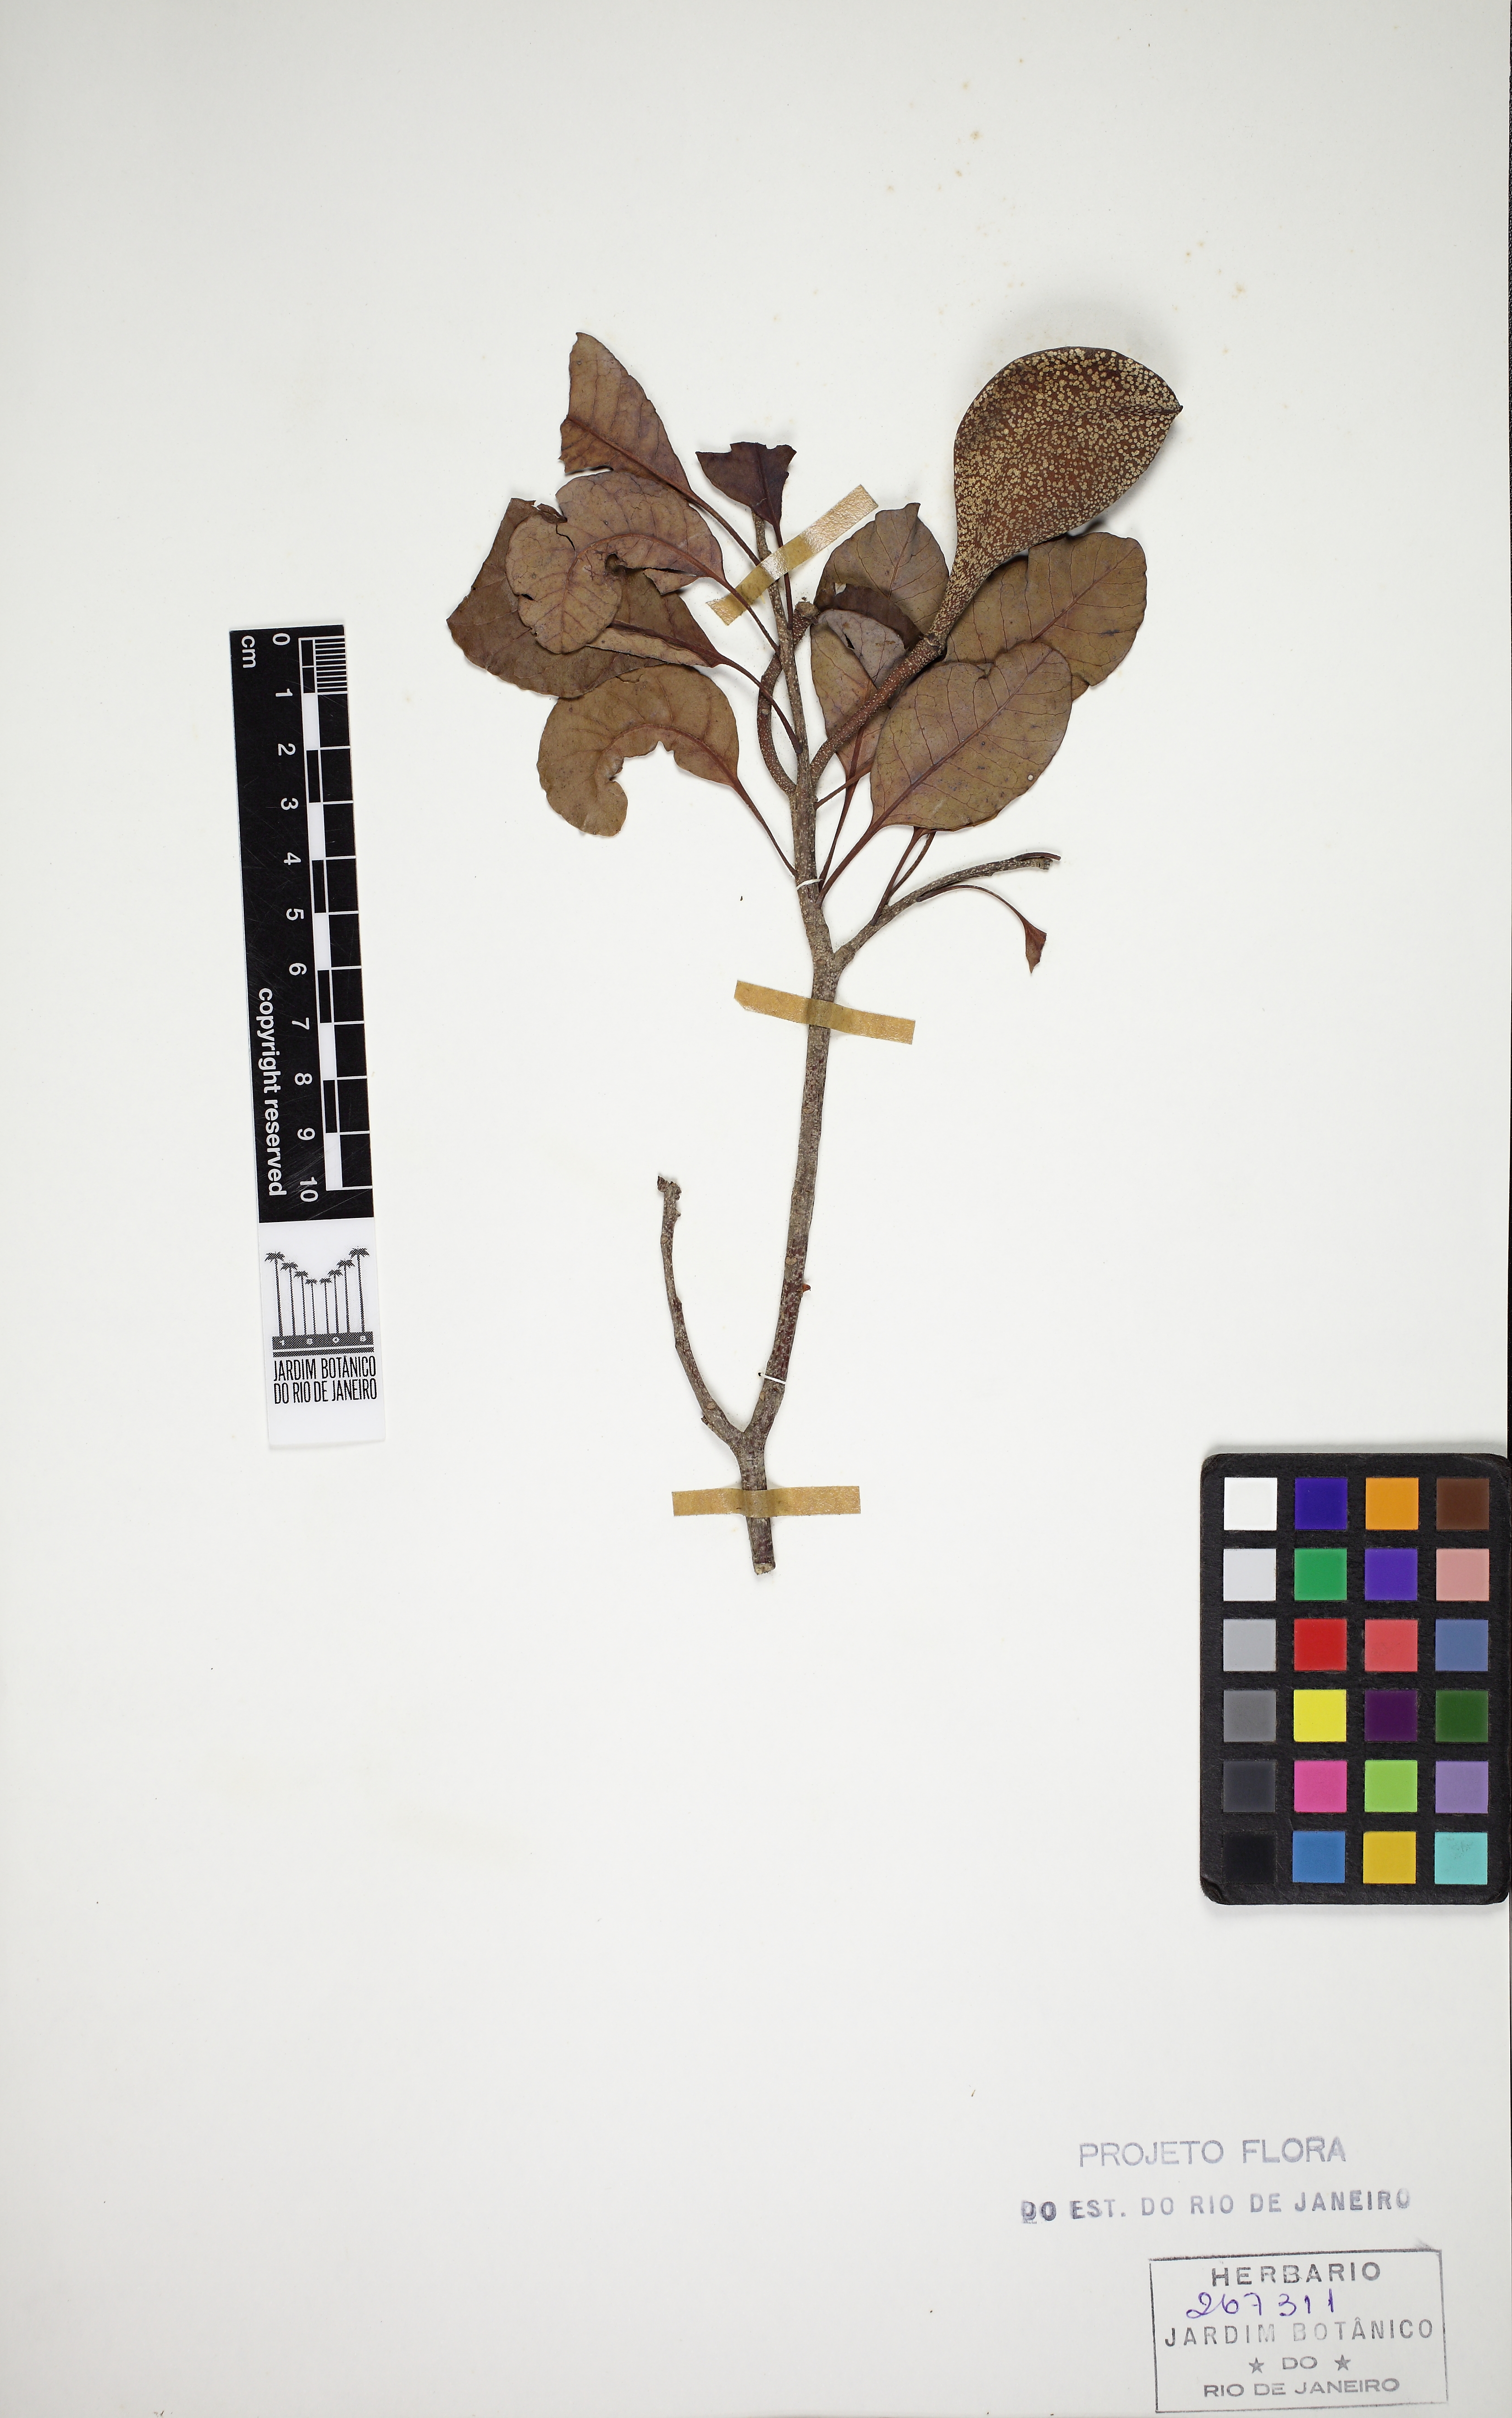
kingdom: Plantae
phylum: Tracheophyta
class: Magnoliopsida
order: Gentianales
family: Apocynaceae
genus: Aspidosperma
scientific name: Aspidosperma pyricollum
